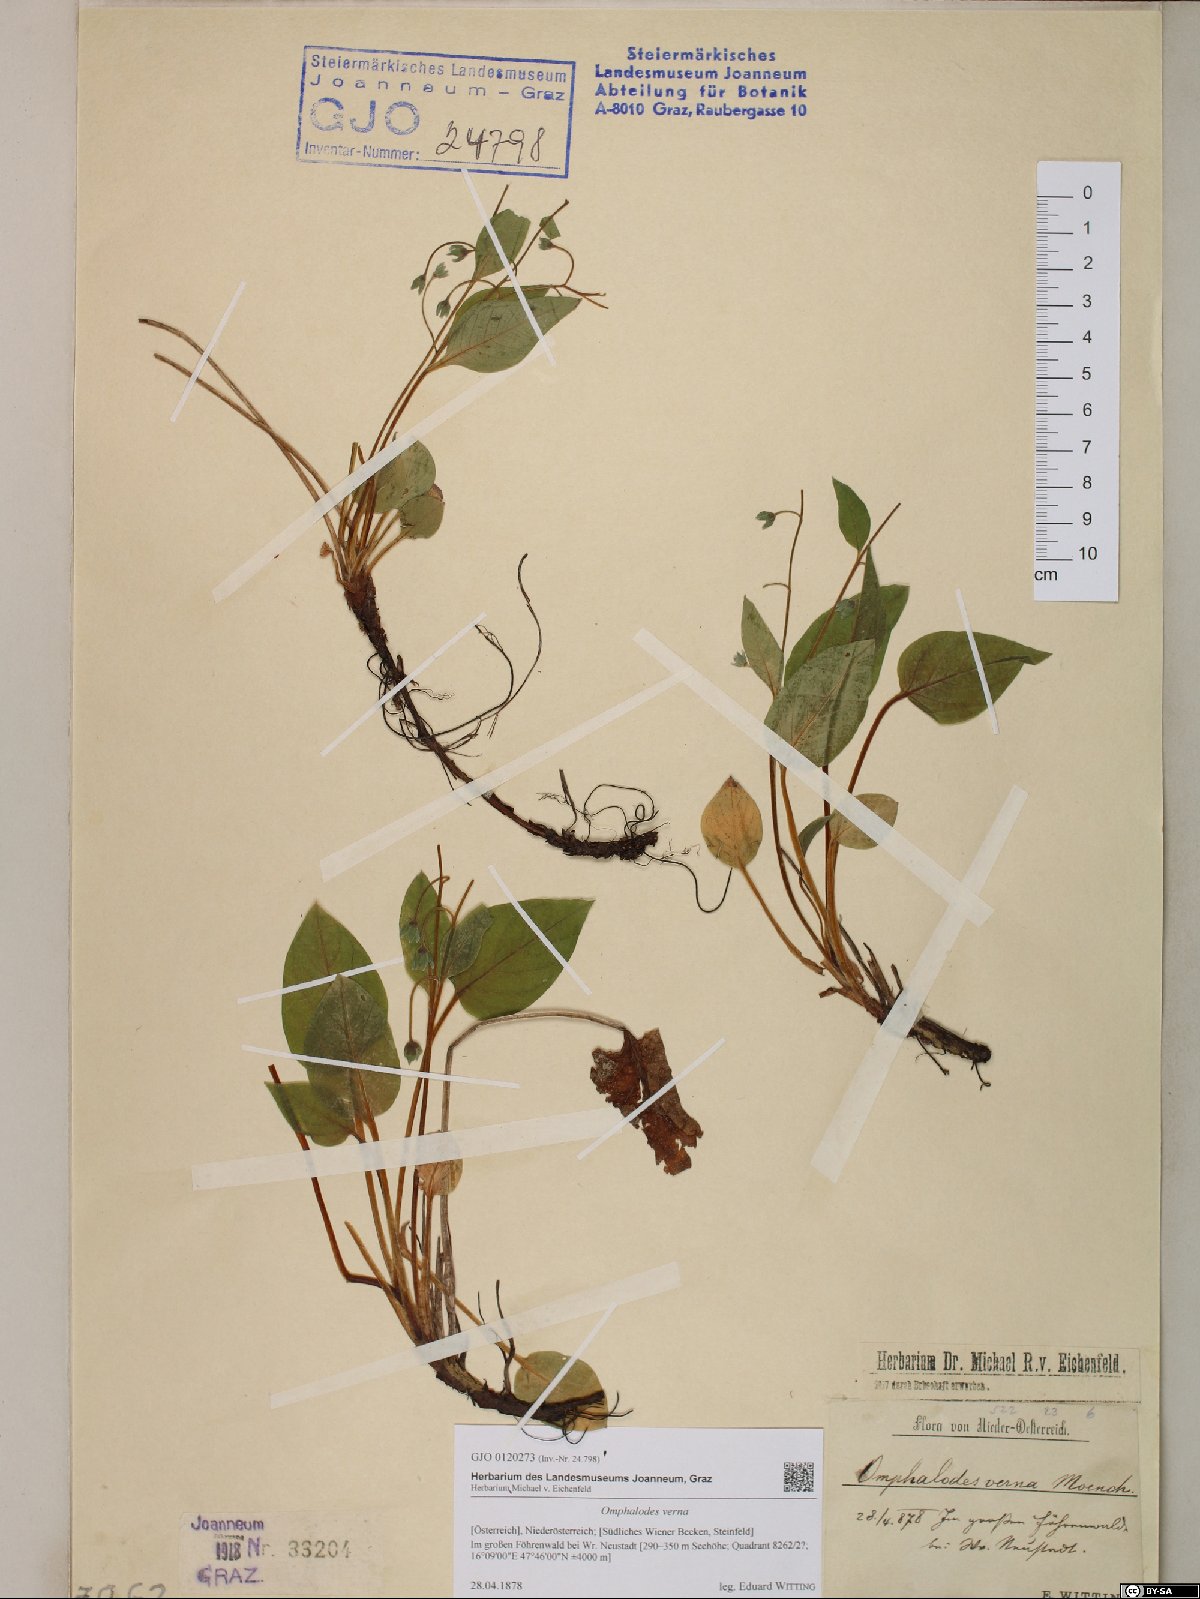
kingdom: Plantae
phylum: Tracheophyta
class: Magnoliopsida
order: Boraginales
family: Boraginaceae
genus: Omphalodes
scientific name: Omphalodes verna
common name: Blue-eyed-mary
